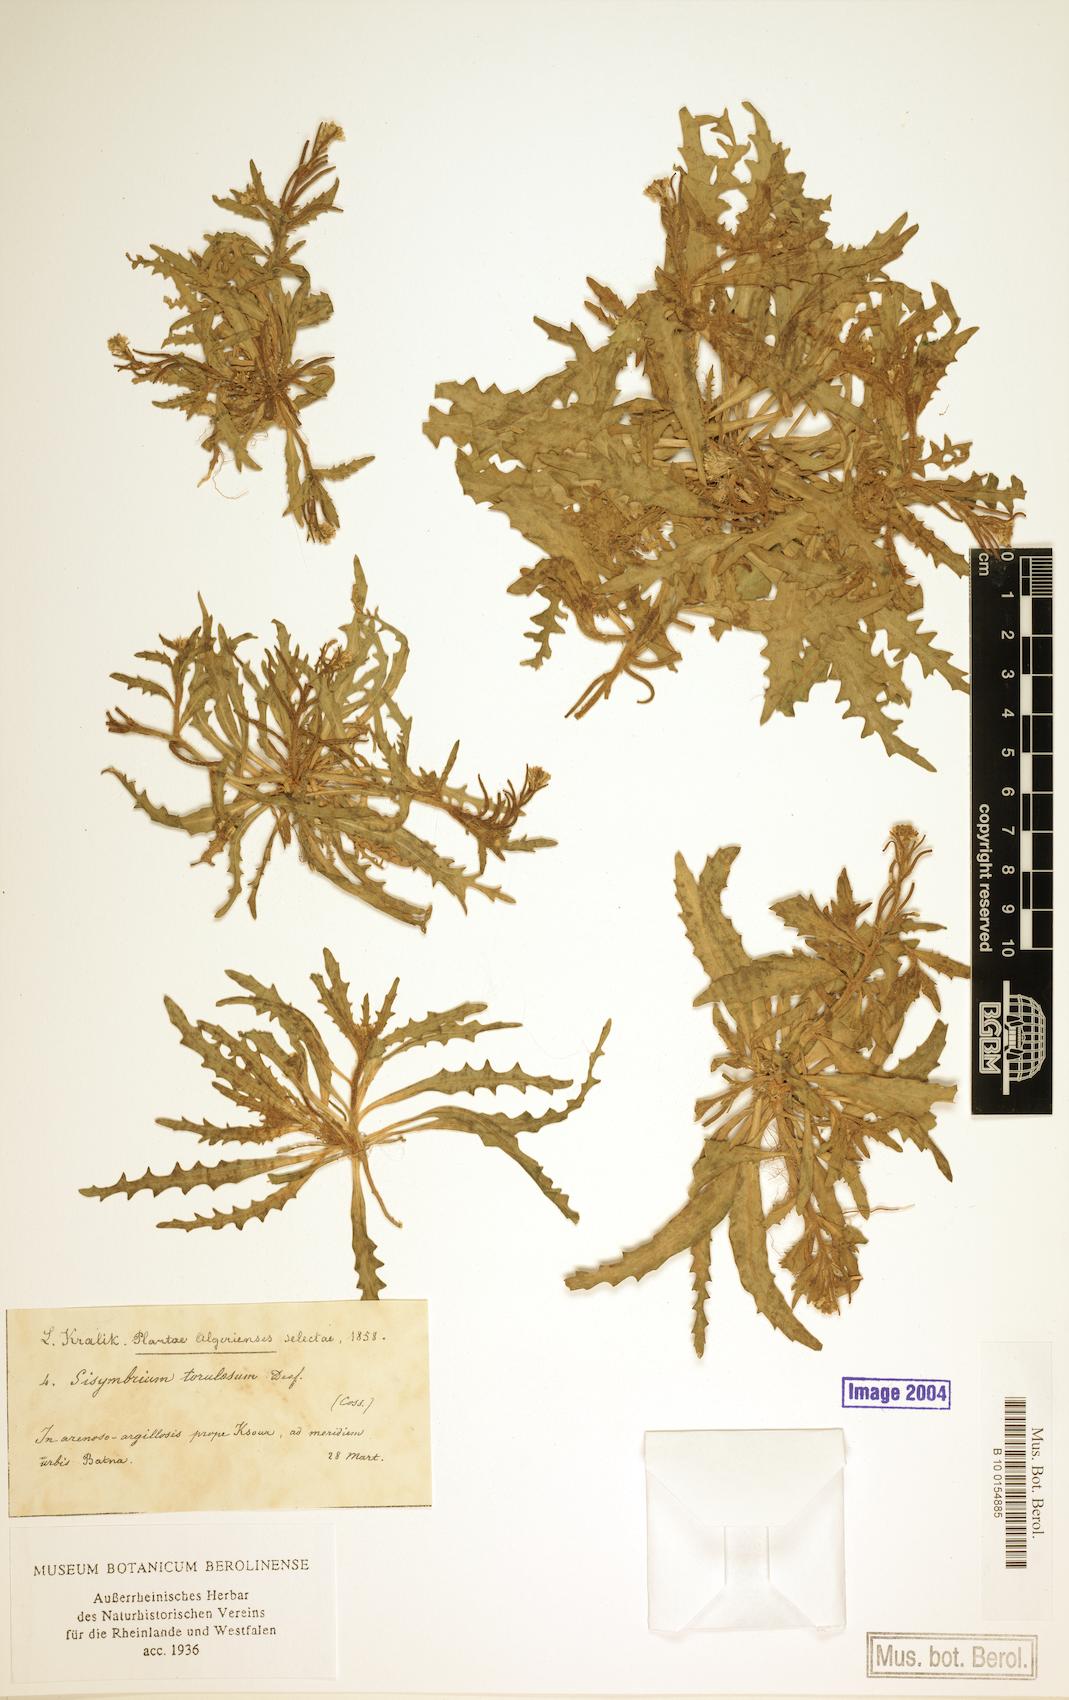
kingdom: Plantae
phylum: Tracheophyta
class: Magnoliopsida
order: Brassicales
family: Brassicaceae
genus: Neotorularia
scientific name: Neotorularia torulosa
